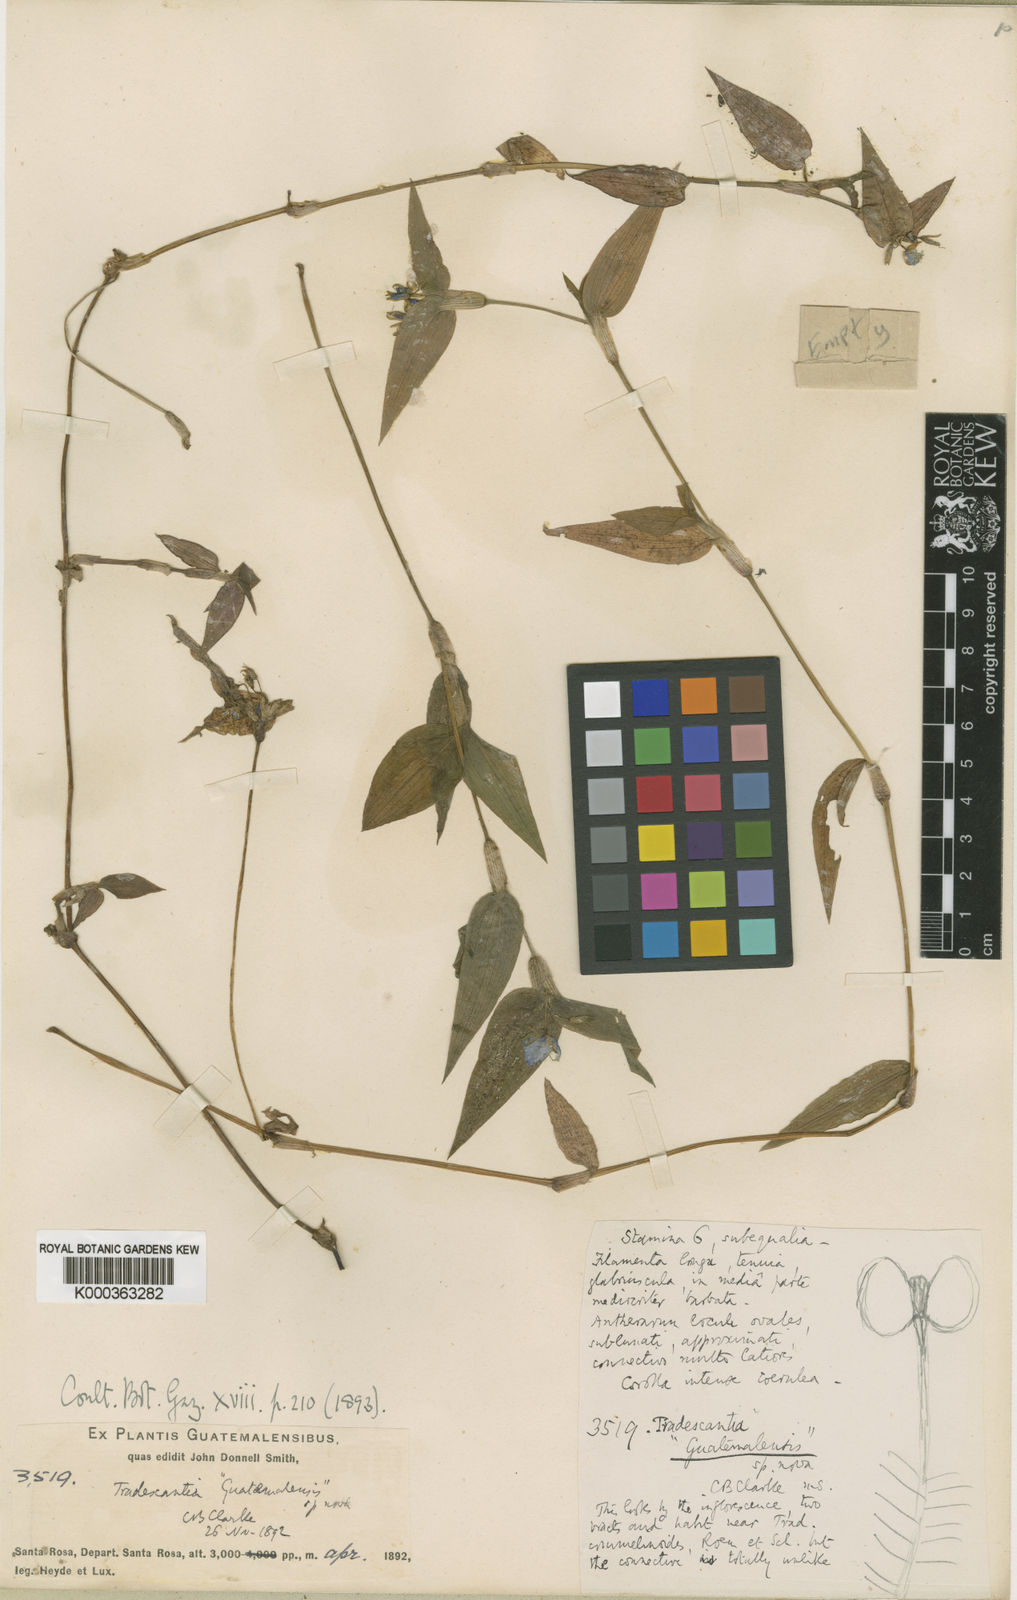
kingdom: Plantae
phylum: Tracheophyta
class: Liliopsida
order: Commelinales
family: Commelinaceae
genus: Elasis
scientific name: Elasis guatemalensis
